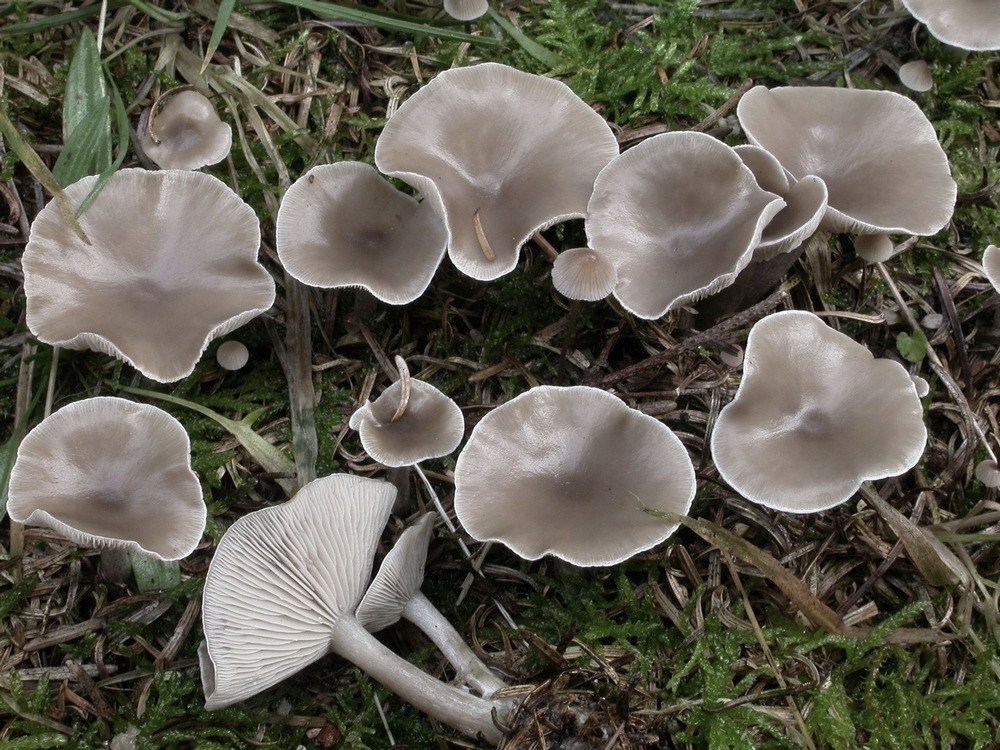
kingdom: Fungi
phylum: Basidiomycota
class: Agaricomycetes
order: Agaricales
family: Tricholomataceae
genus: Clitocybe
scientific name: Clitocybe metachroa
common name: grå tragthat
